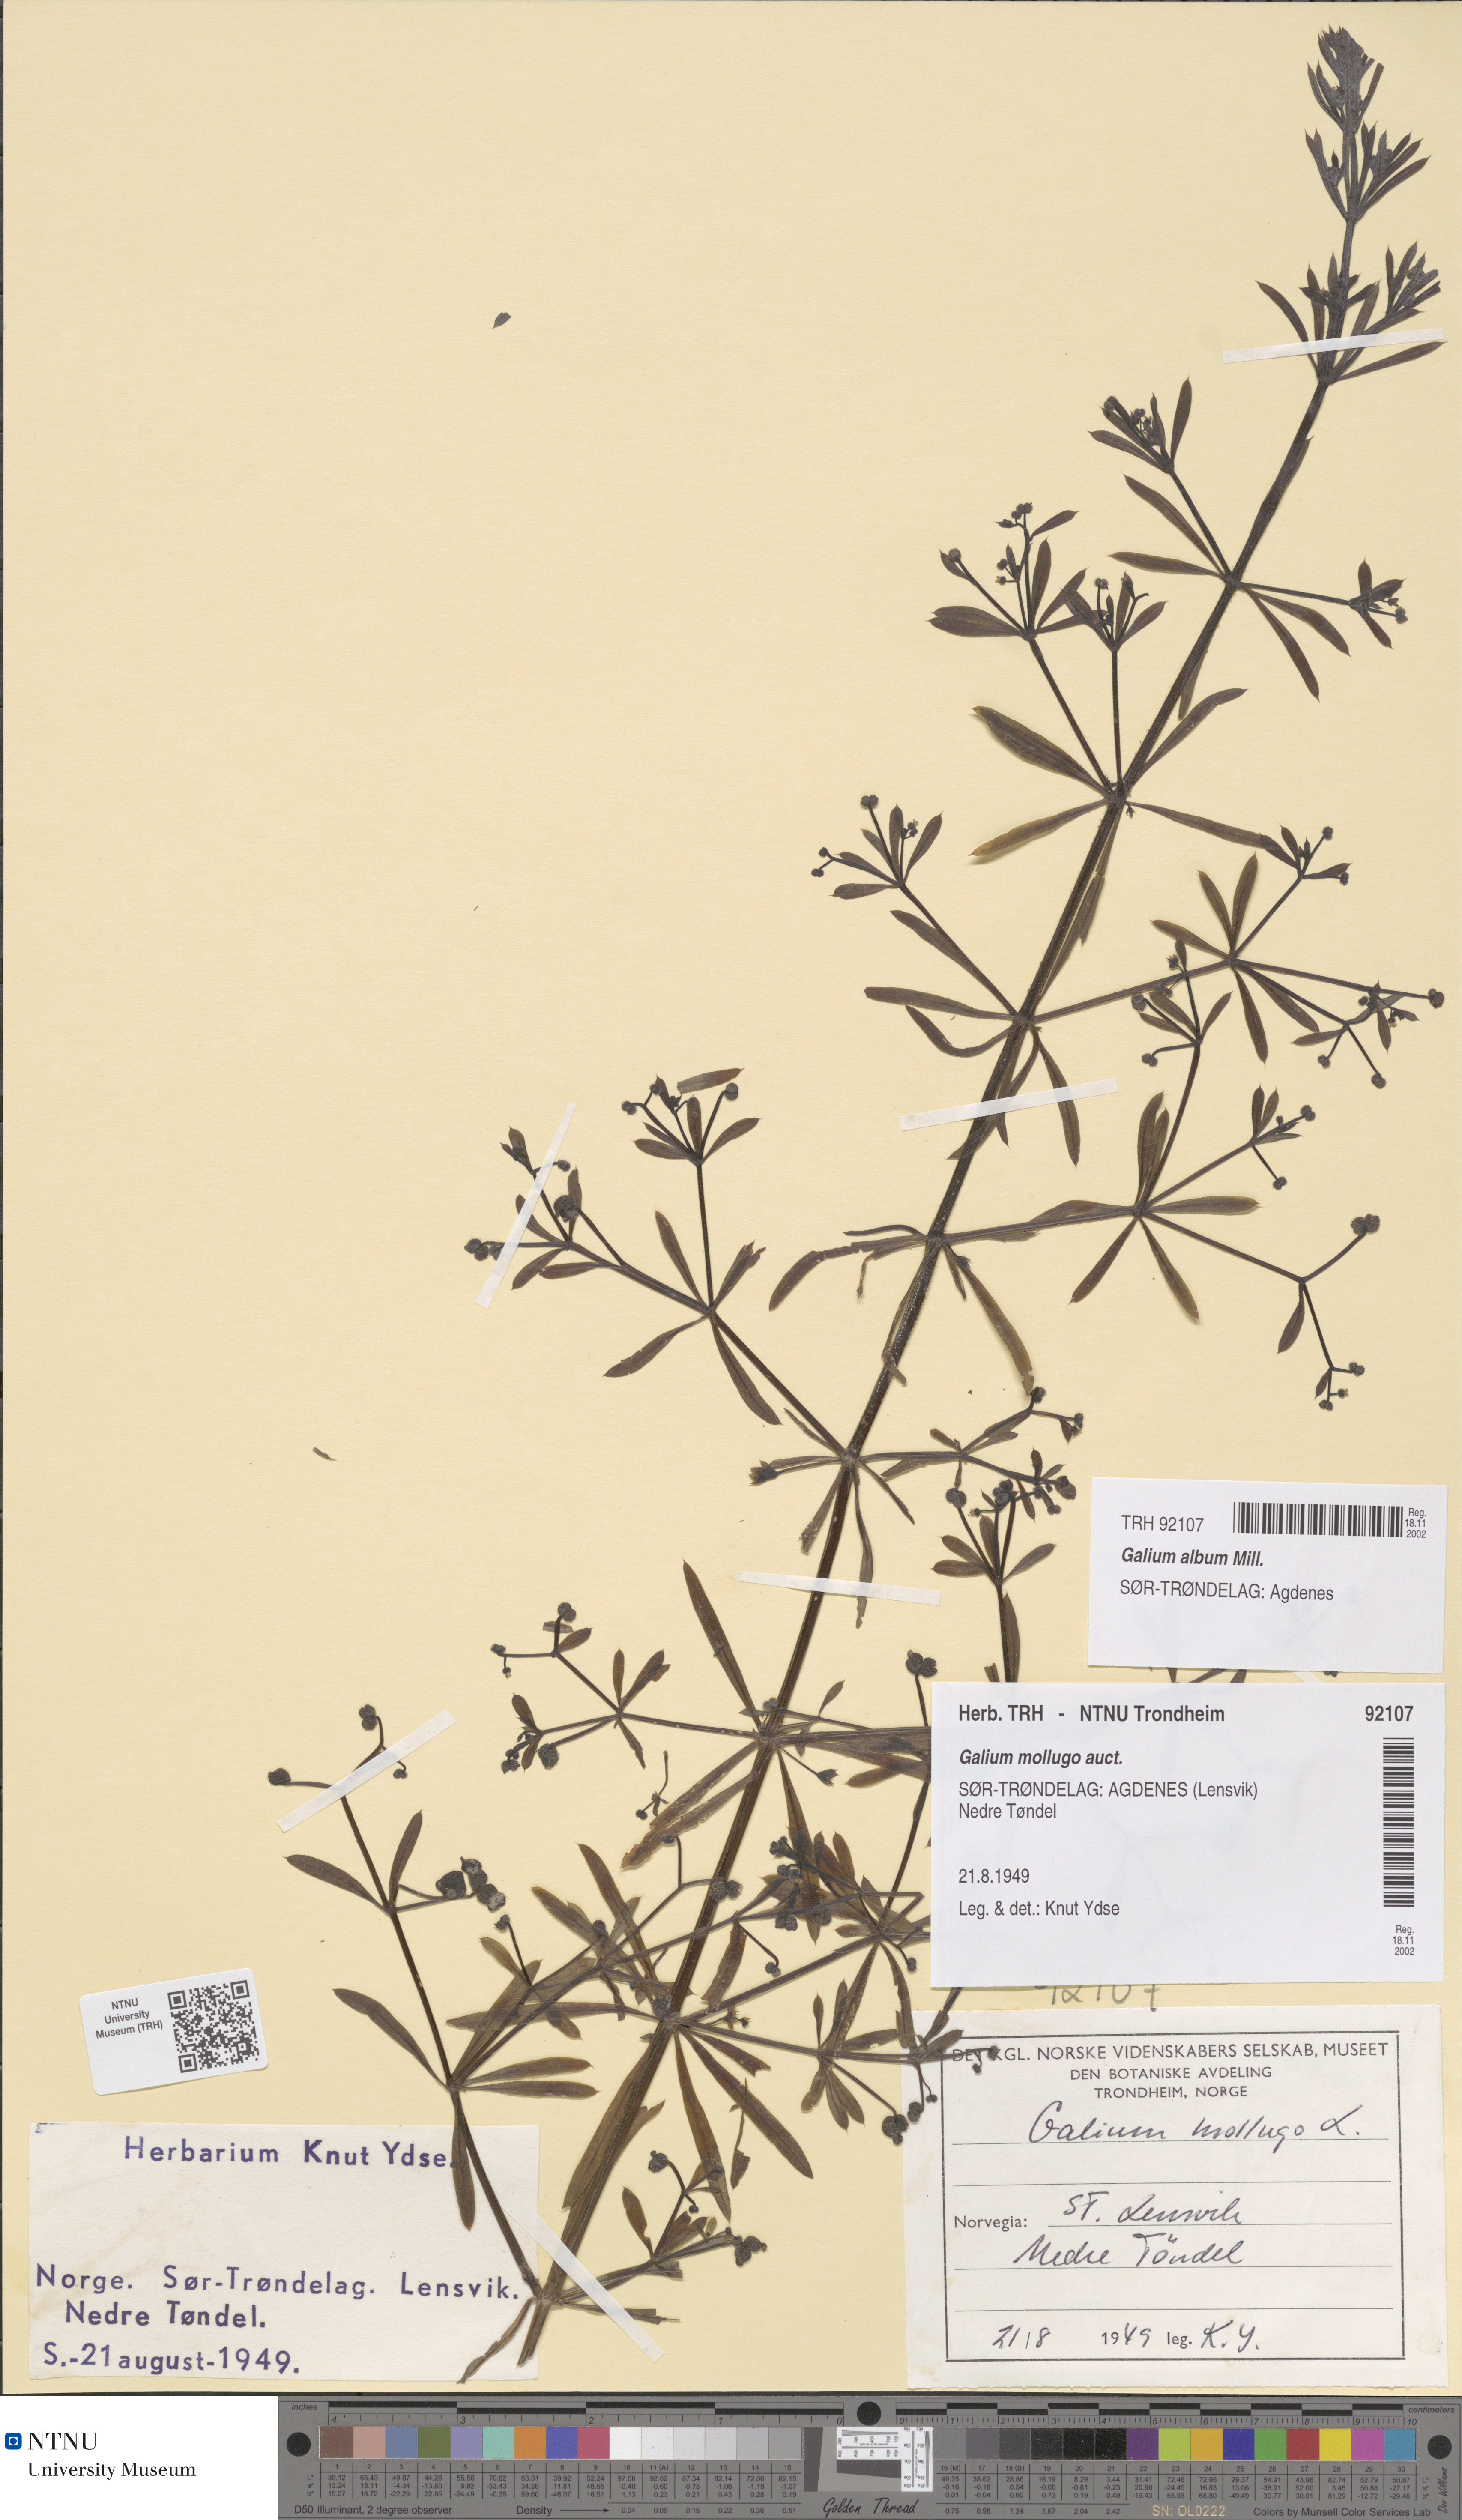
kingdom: Plantae
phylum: Tracheophyta
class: Magnoliopsida
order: Gentianales
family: Rubiaceae
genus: Galium
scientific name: Galium aparine
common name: Cleavers
